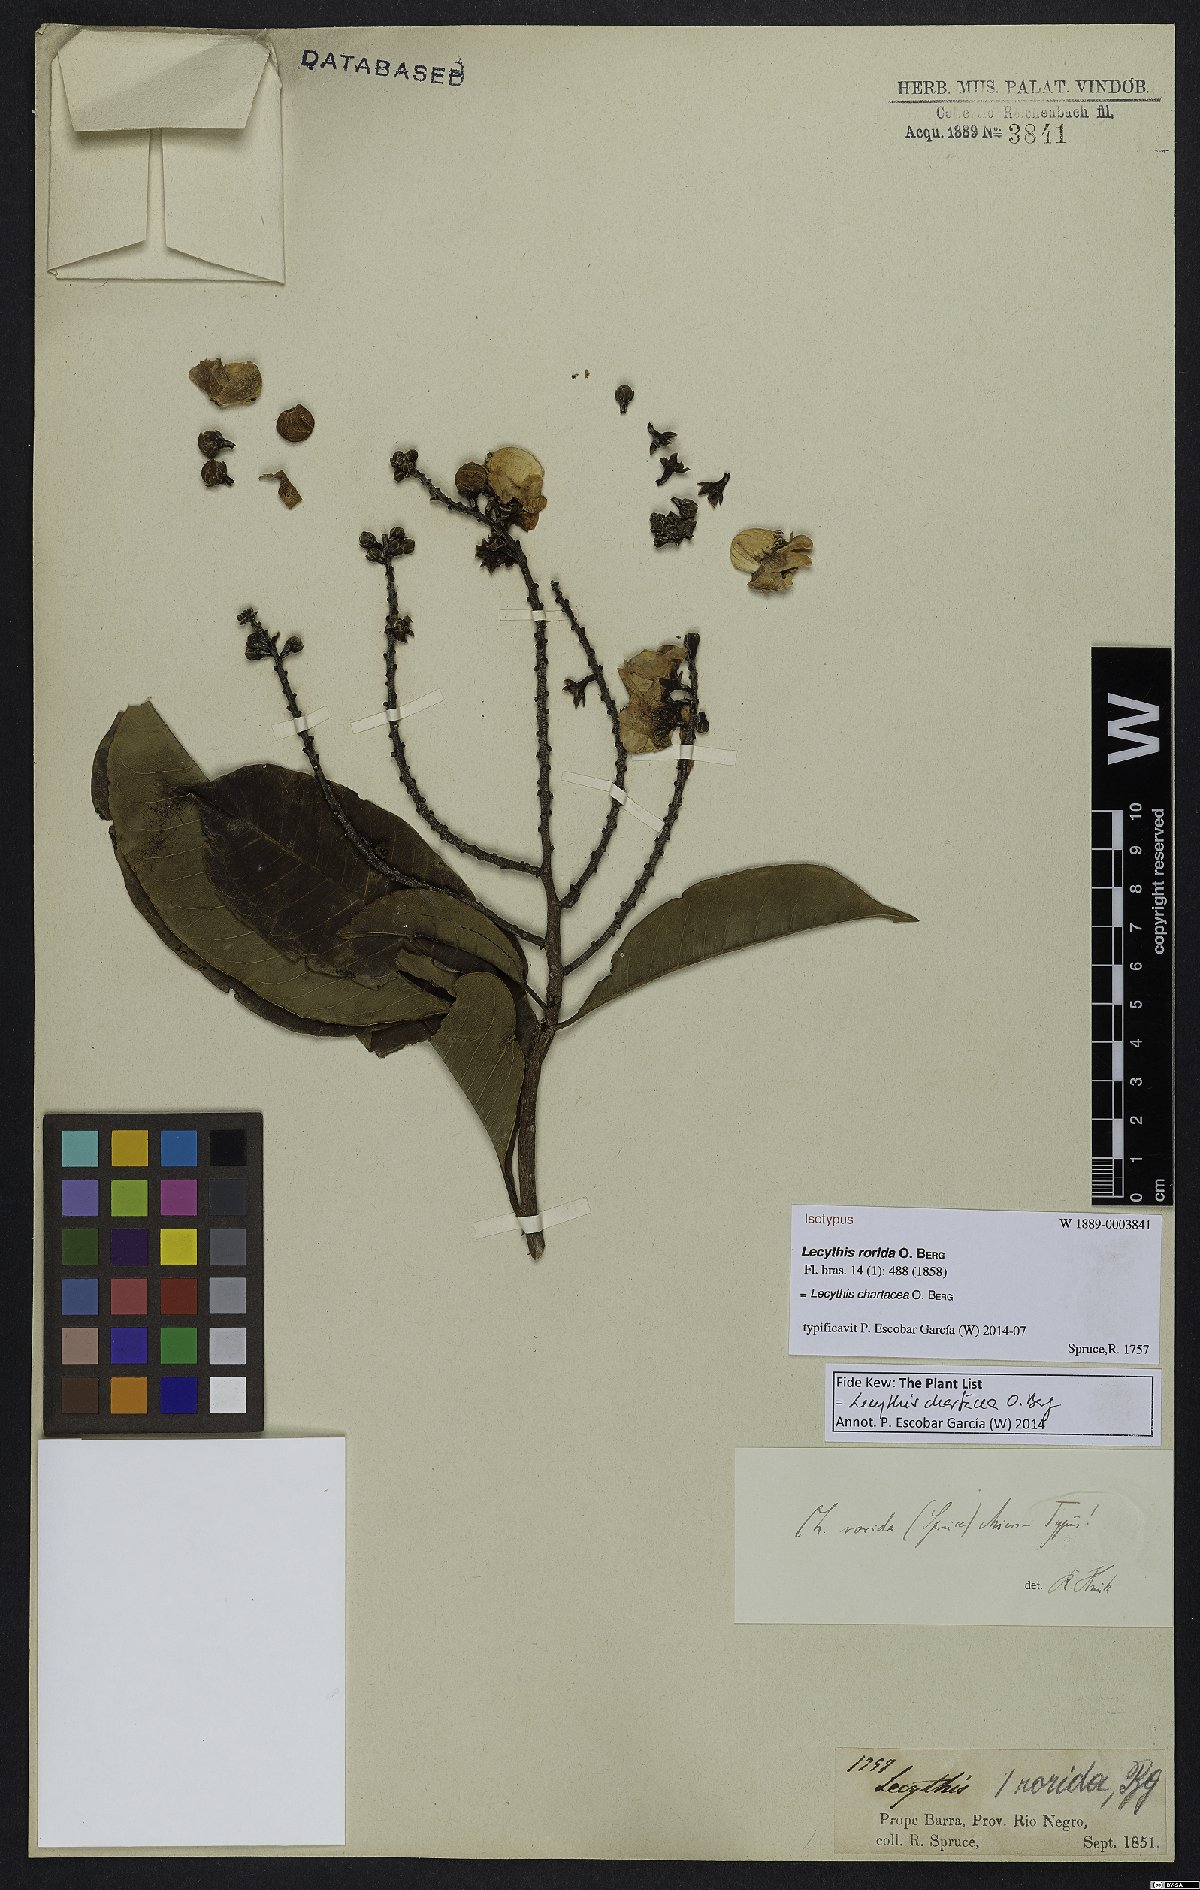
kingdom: Plantae
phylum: Tracheophyta
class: Magnoliopsida
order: Ericales
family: Lecythidaceae
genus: Lecythis
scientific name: Lecythis chartacea
